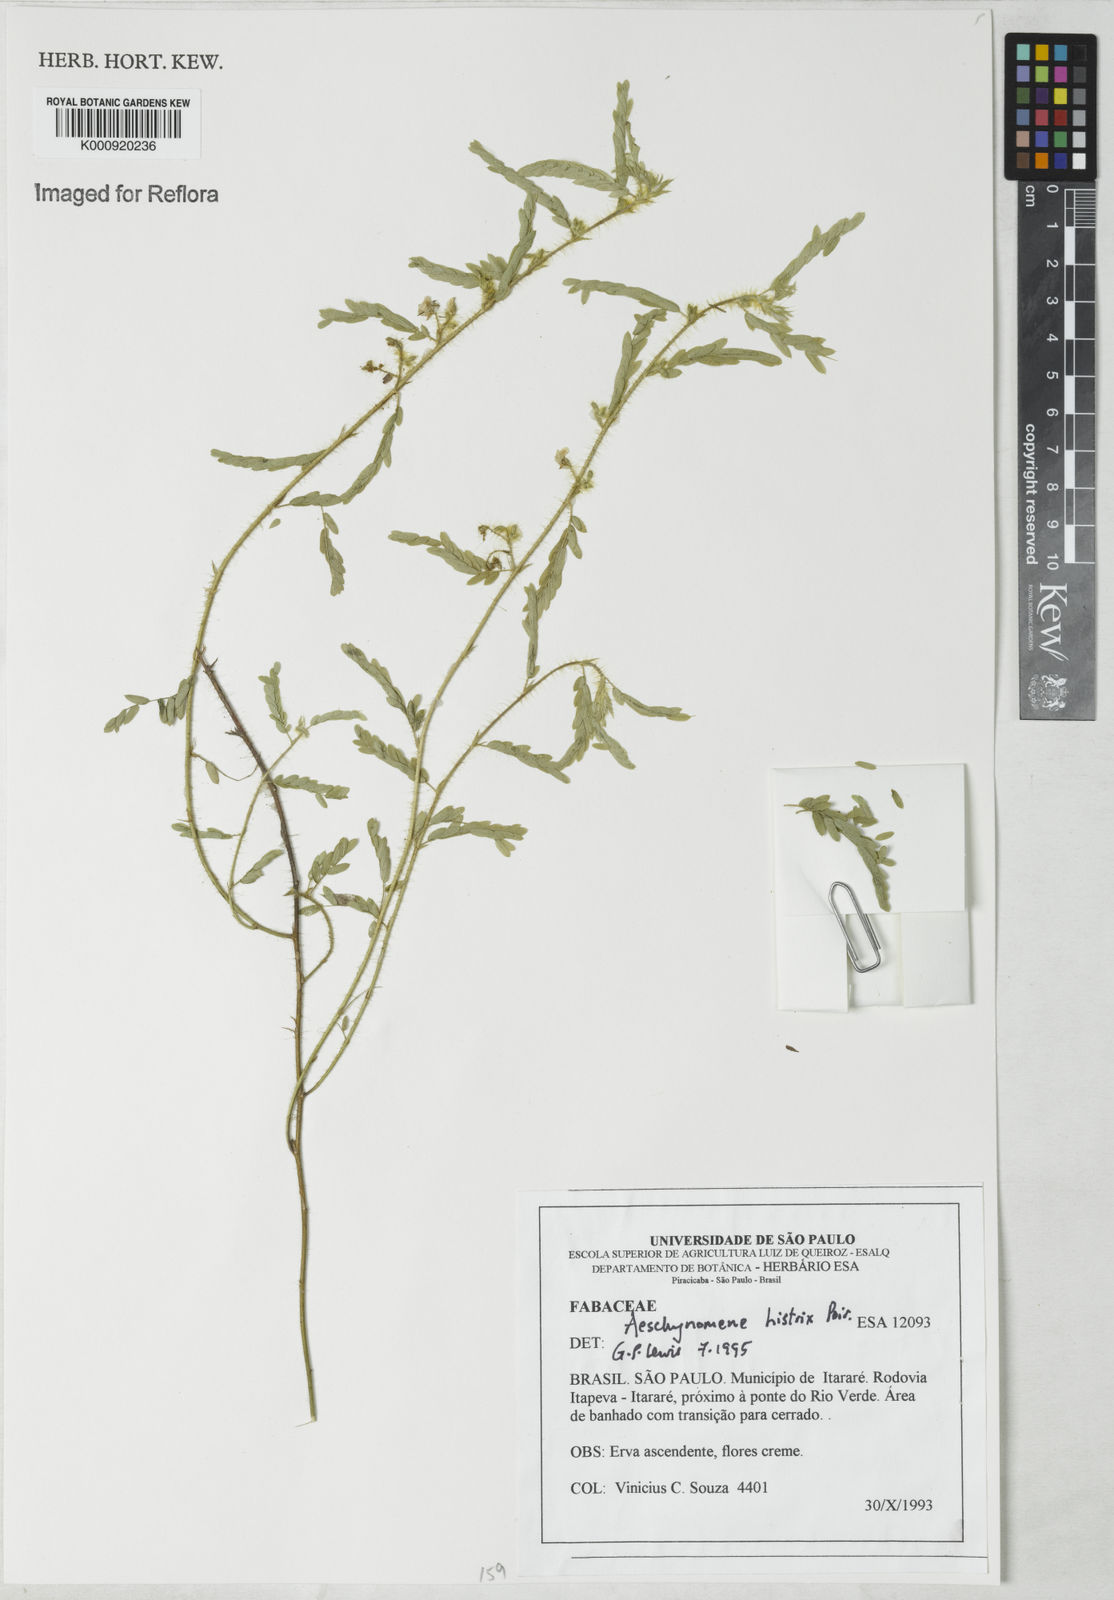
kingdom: Plantae
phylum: Tracheophyta
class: Magnoliopsida
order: Fabales
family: Fabaceae
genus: Ctenodon
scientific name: Ctenodon histrix
